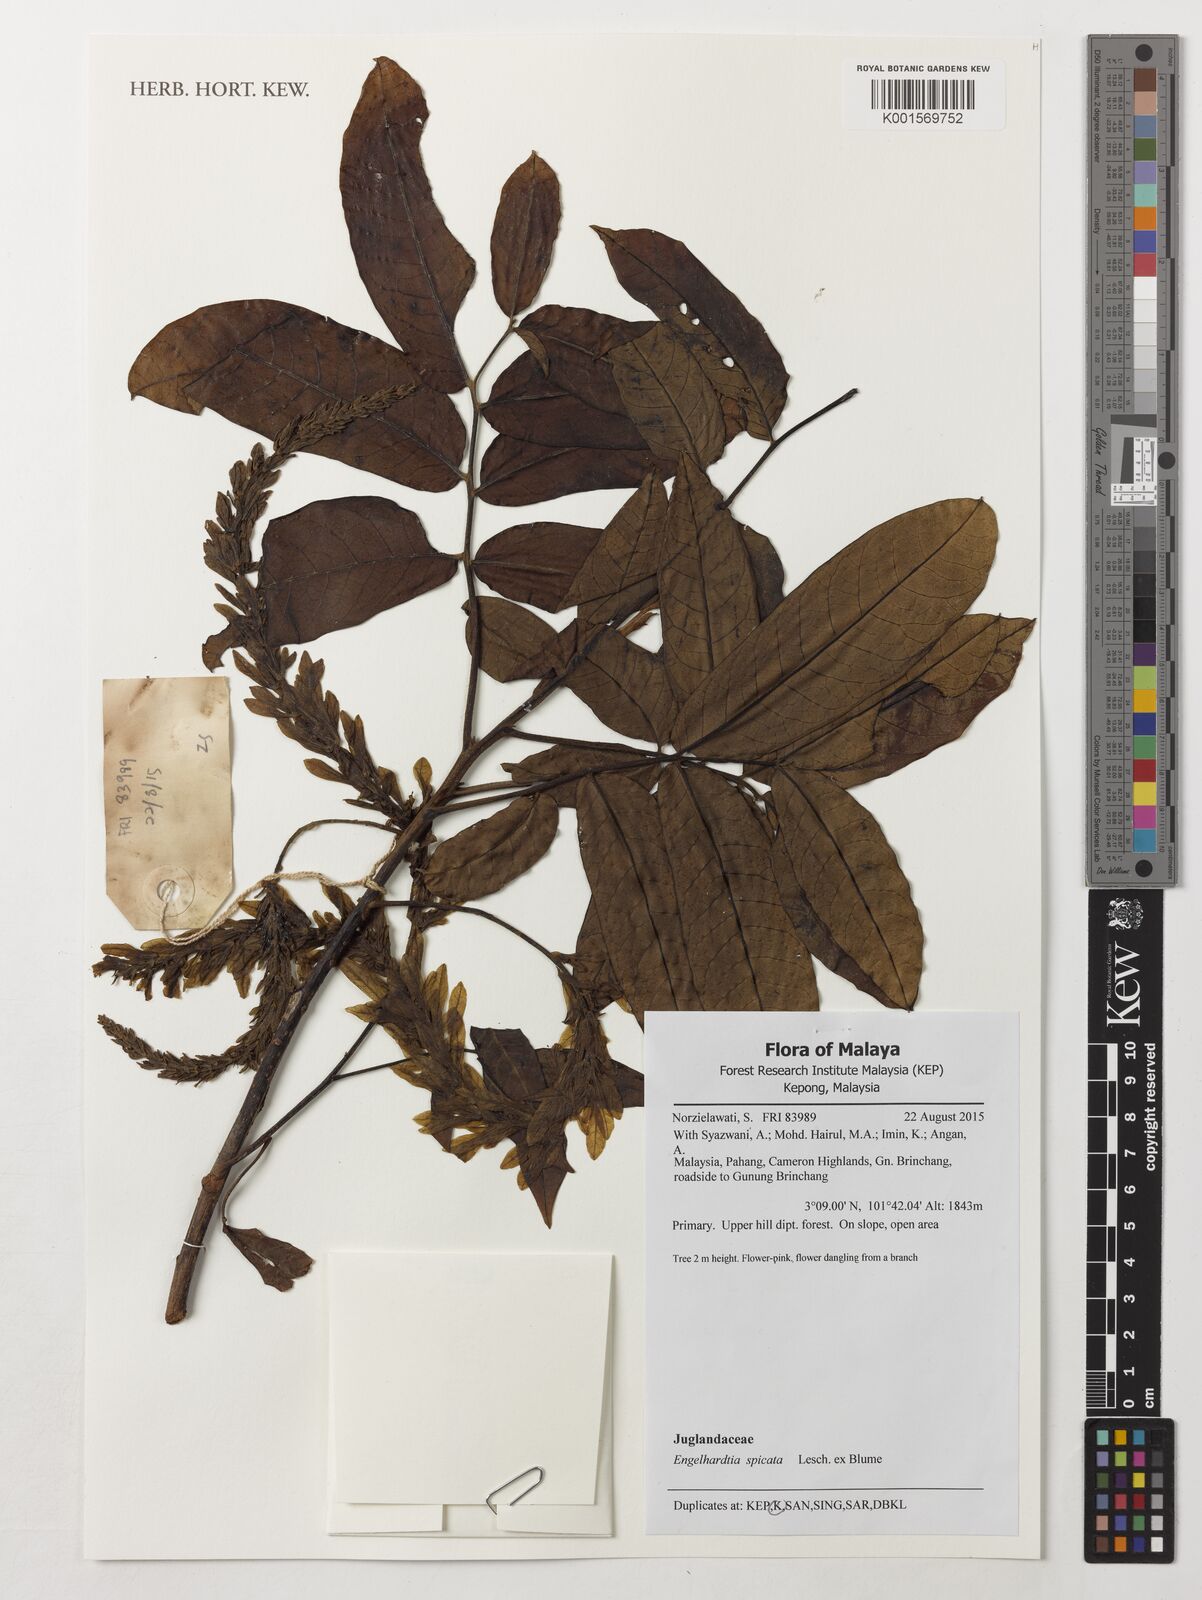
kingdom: Plantae
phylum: Tracheophyta
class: Magnoliopsida
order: Fagales
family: Juglandaceae
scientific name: Juglandaceae
